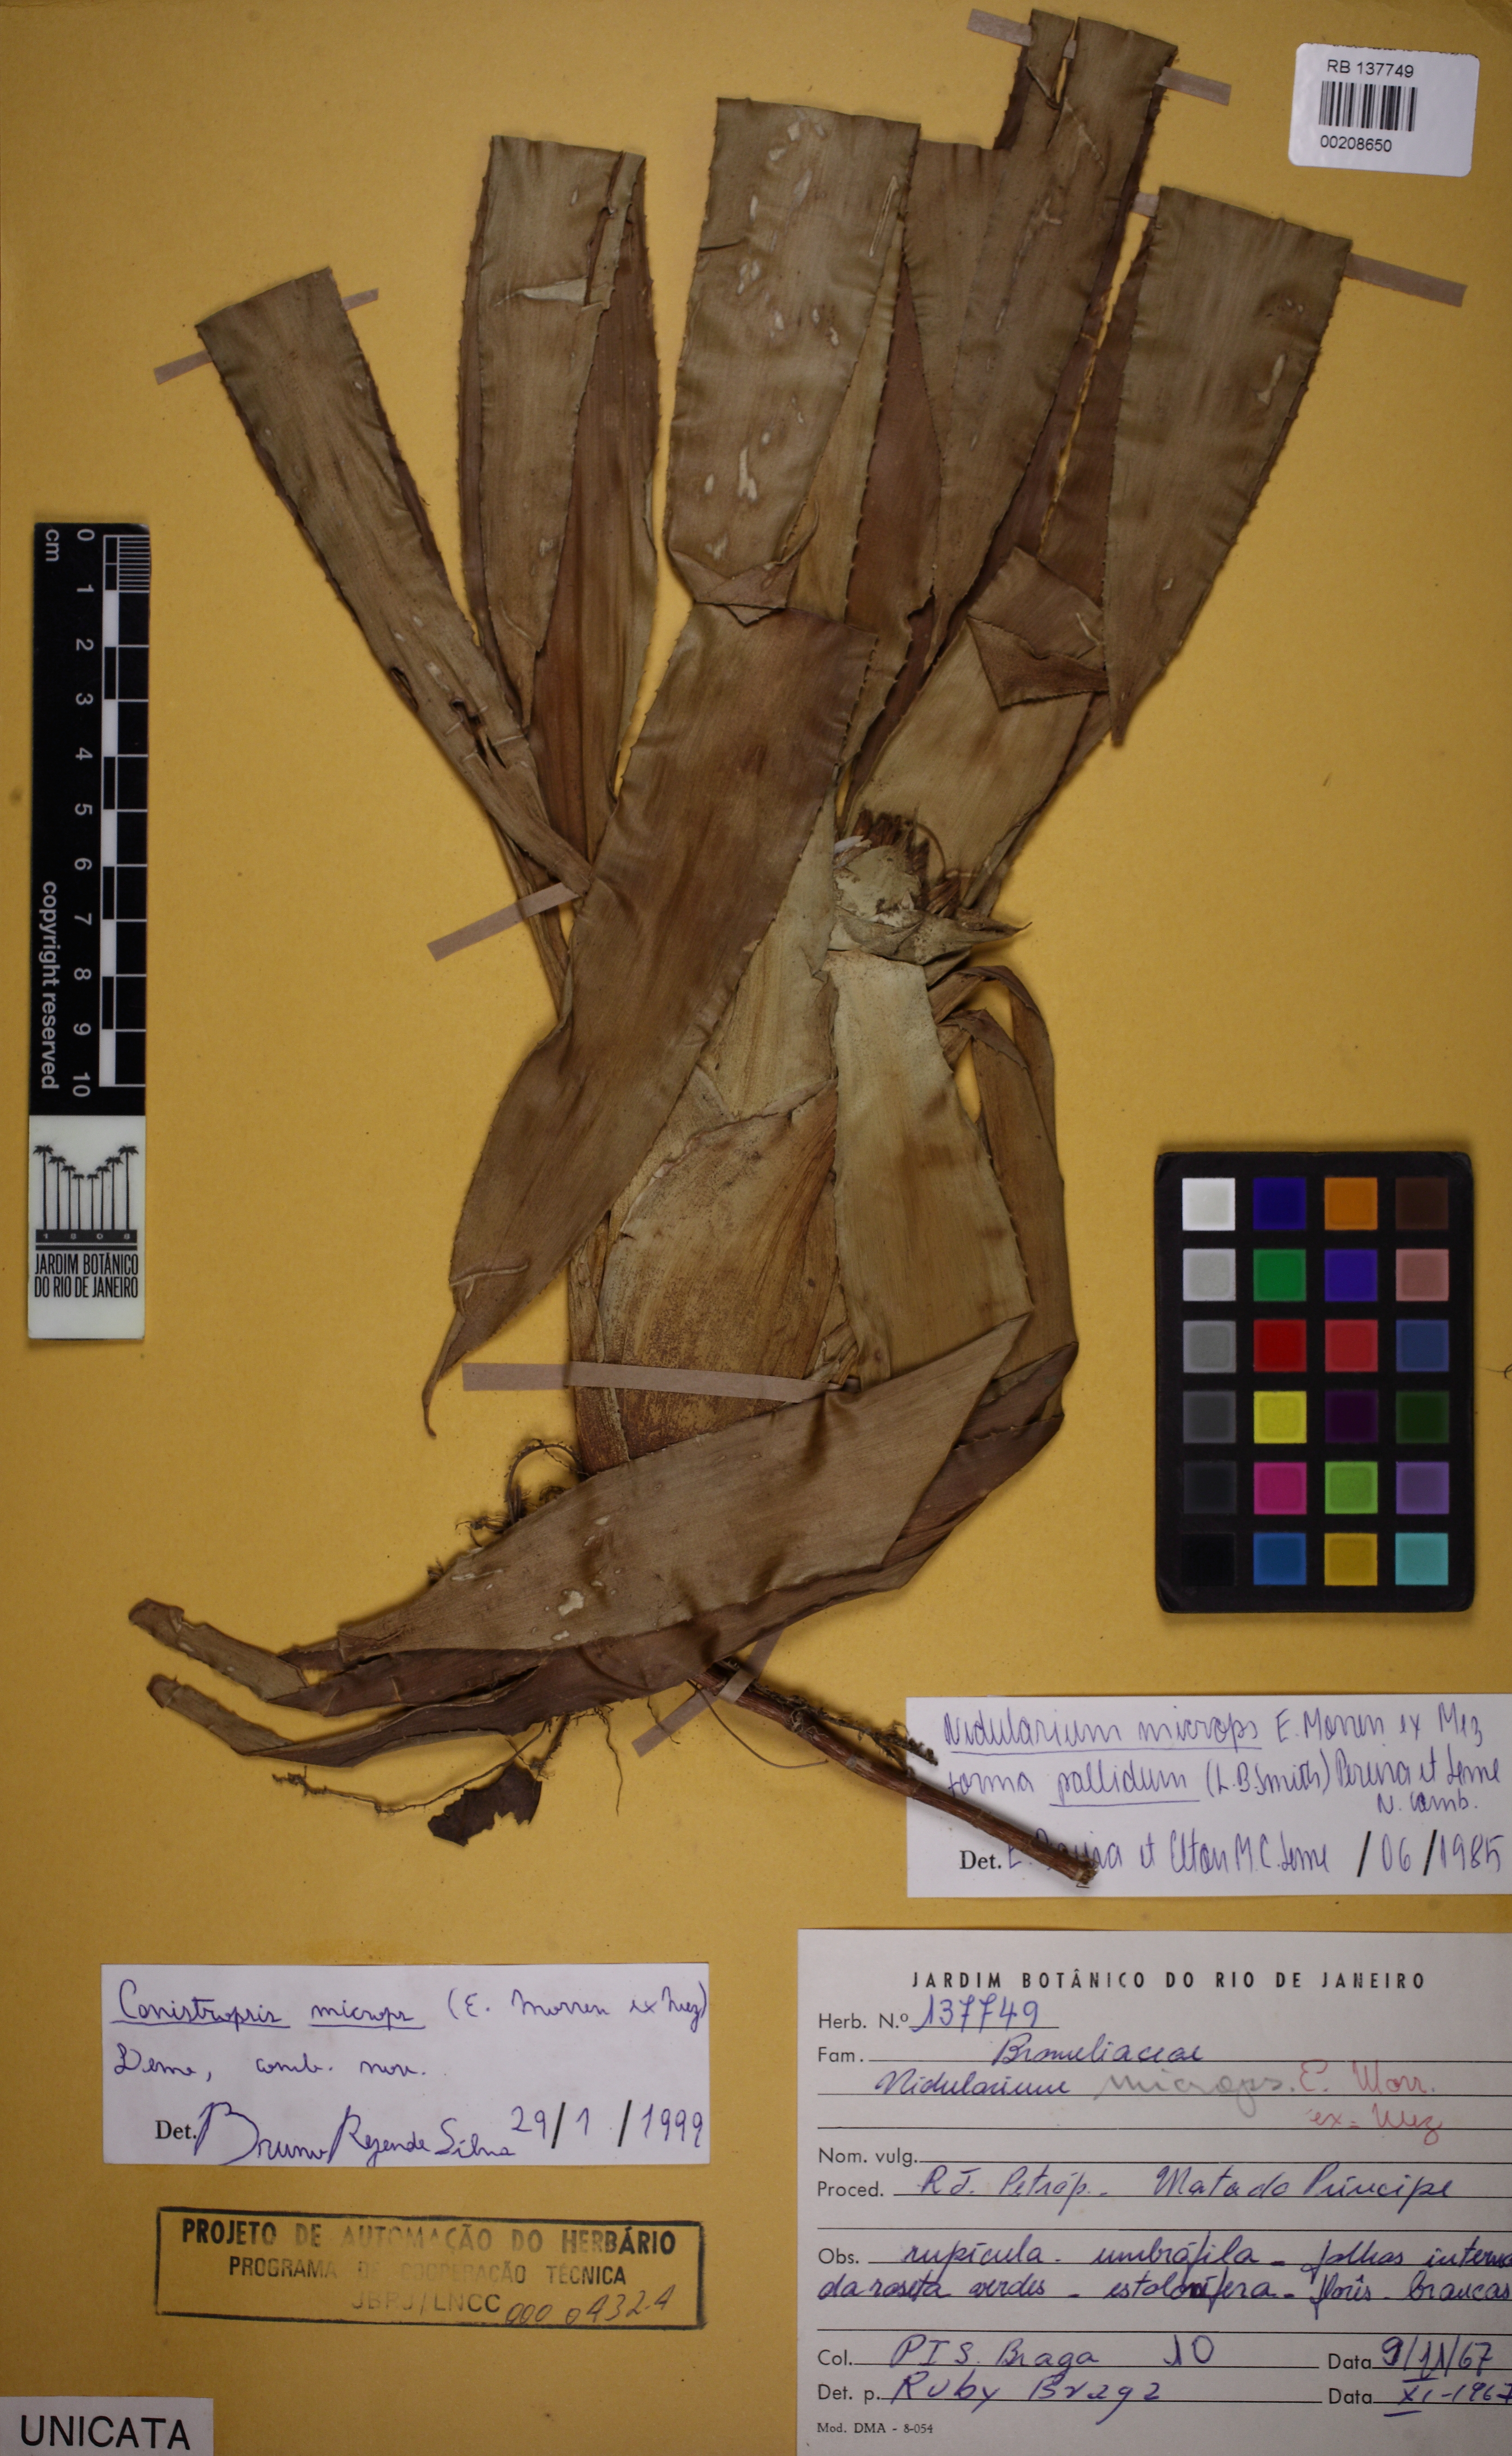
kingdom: Plantae
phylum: Tracheophyta
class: Liliopsida
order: Poales
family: Bromeliaceae
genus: Canistropsis
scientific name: Canistropsis microps
